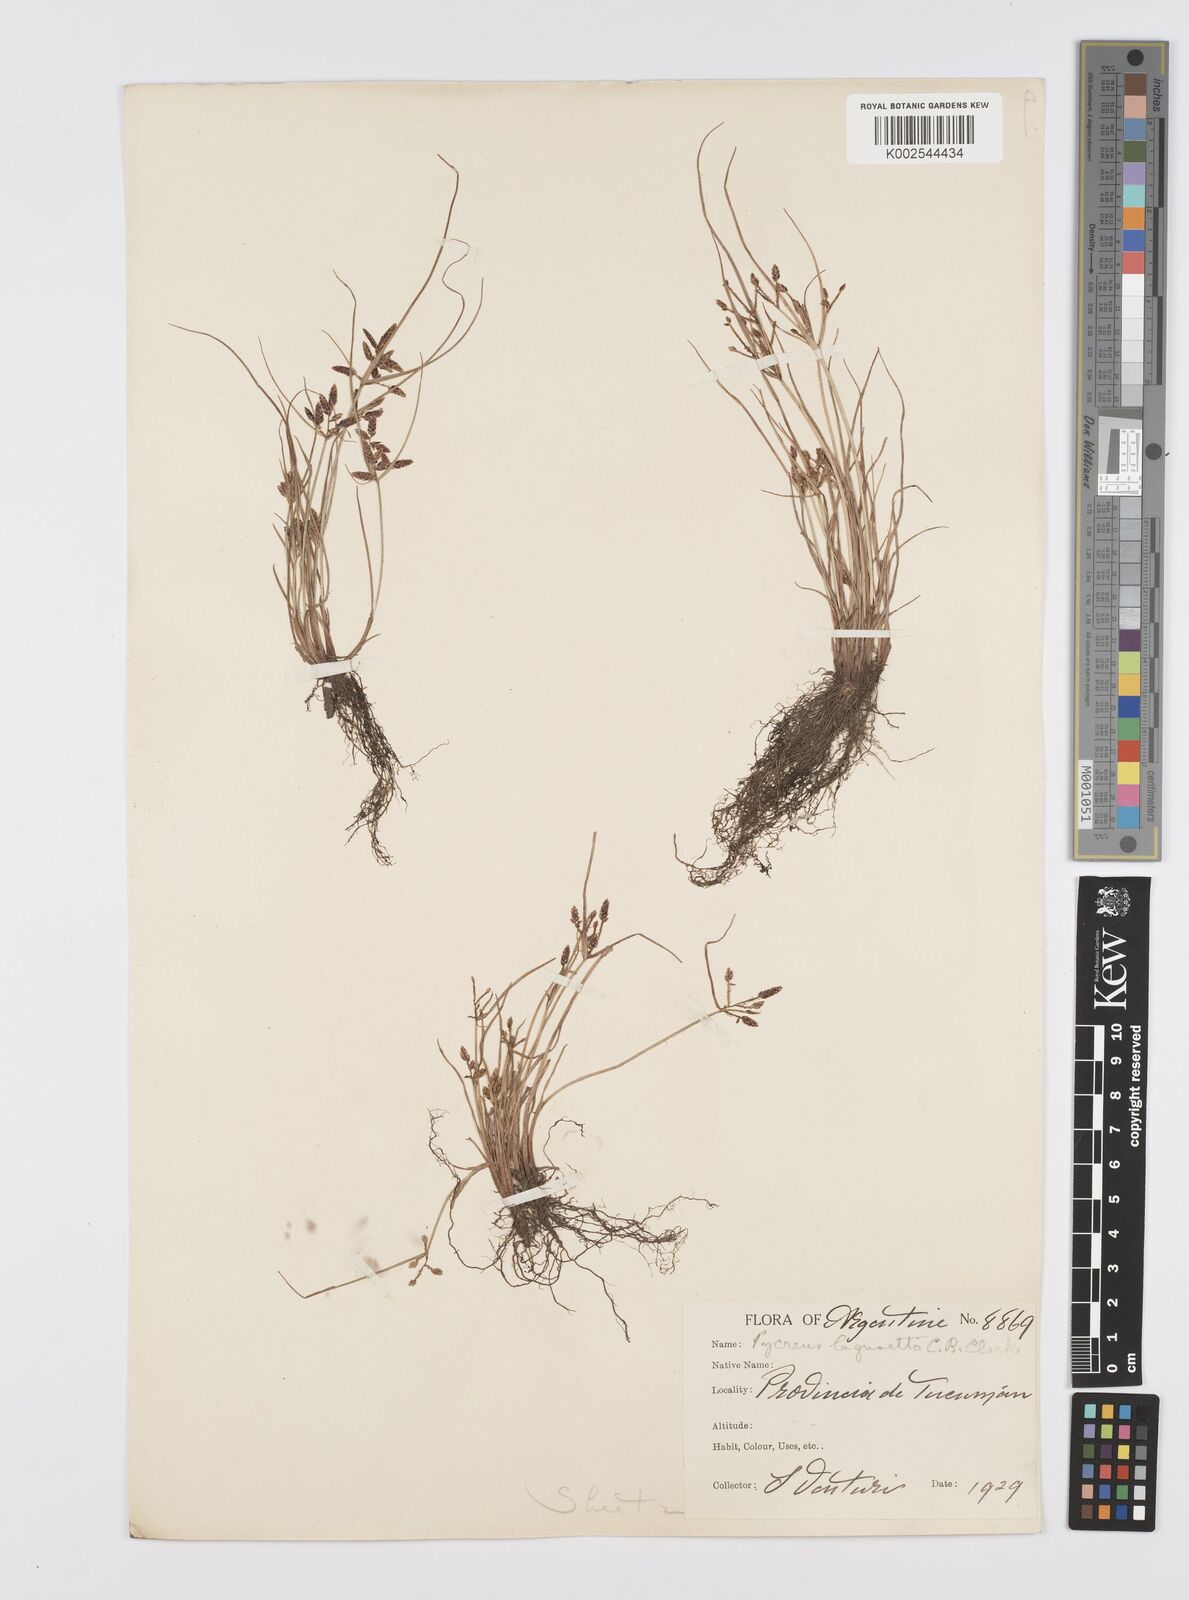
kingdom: Plantae
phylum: Tracheophyta
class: Liliopsida
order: Poales
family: Cyperaceae
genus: Cyperus
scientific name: Cyperus bipartitus
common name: Brook flatsedge
